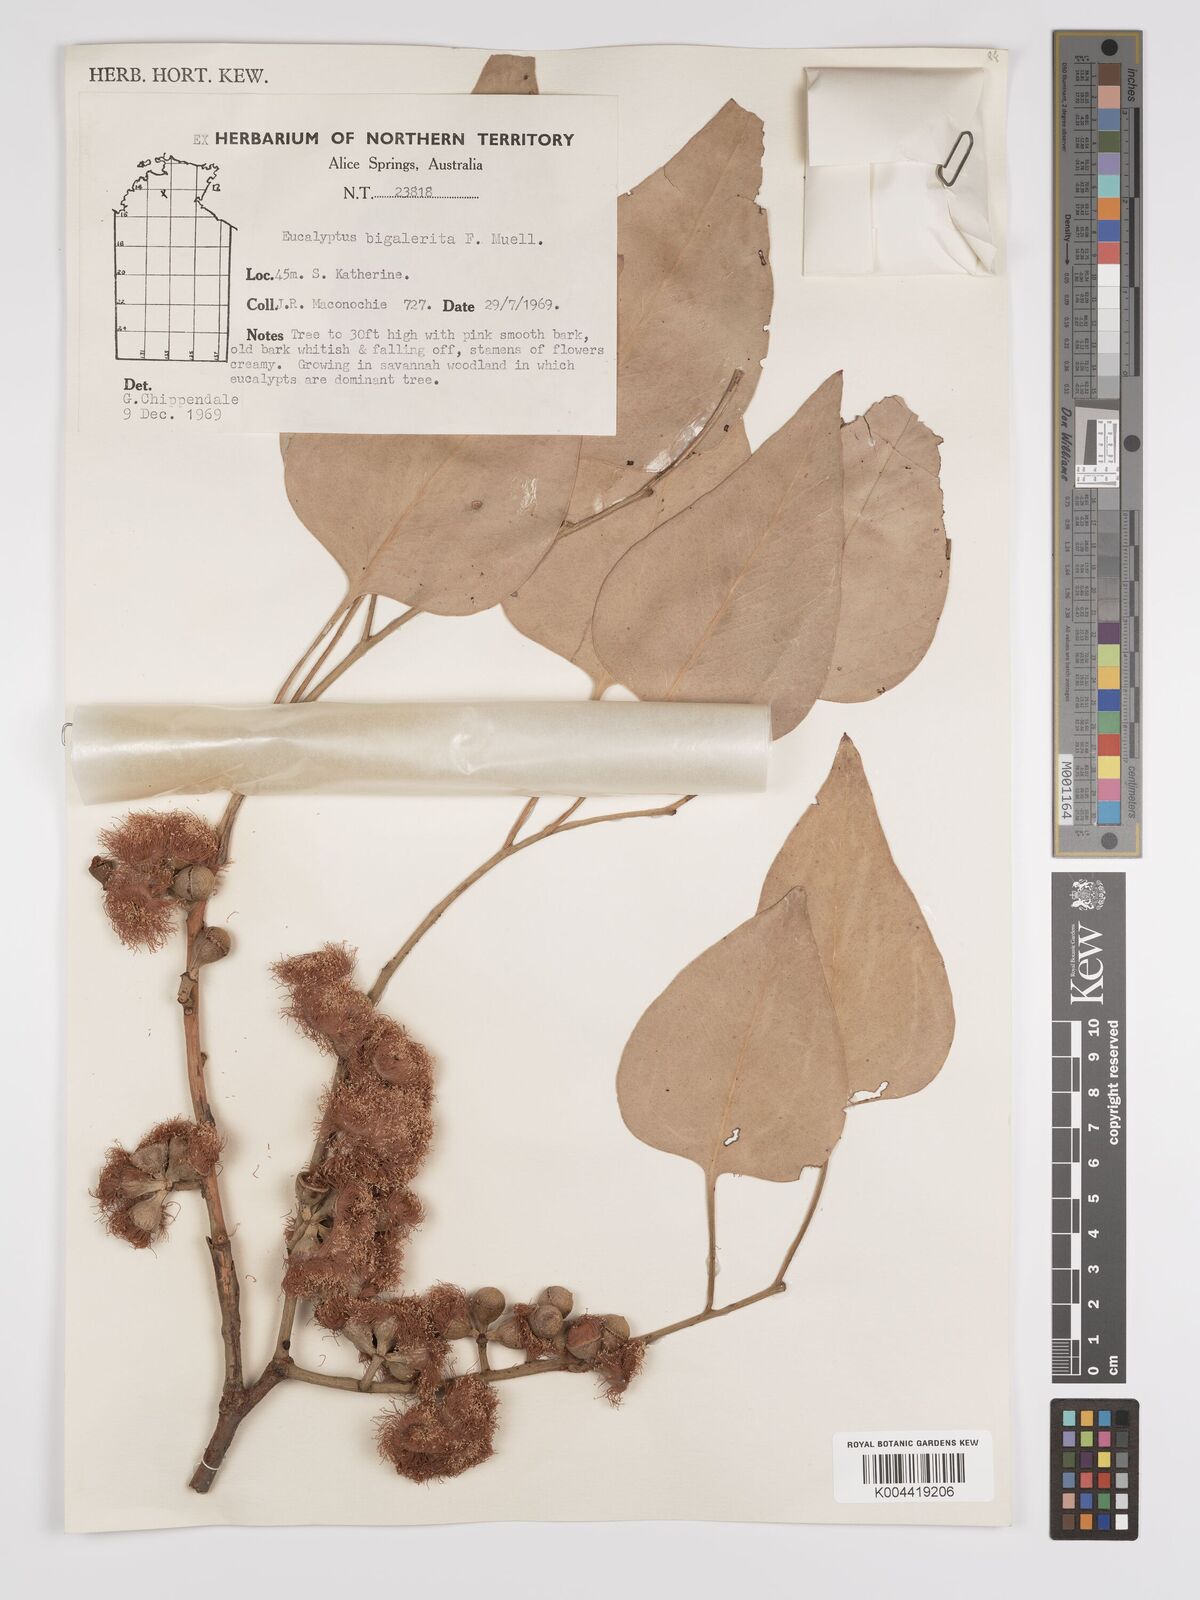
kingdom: Plantae
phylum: Tracheophyta
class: Magnoliopsida
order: Myrtales
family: Myrtaceae
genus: Eucalyptus
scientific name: Eucalyptus bigalerita
